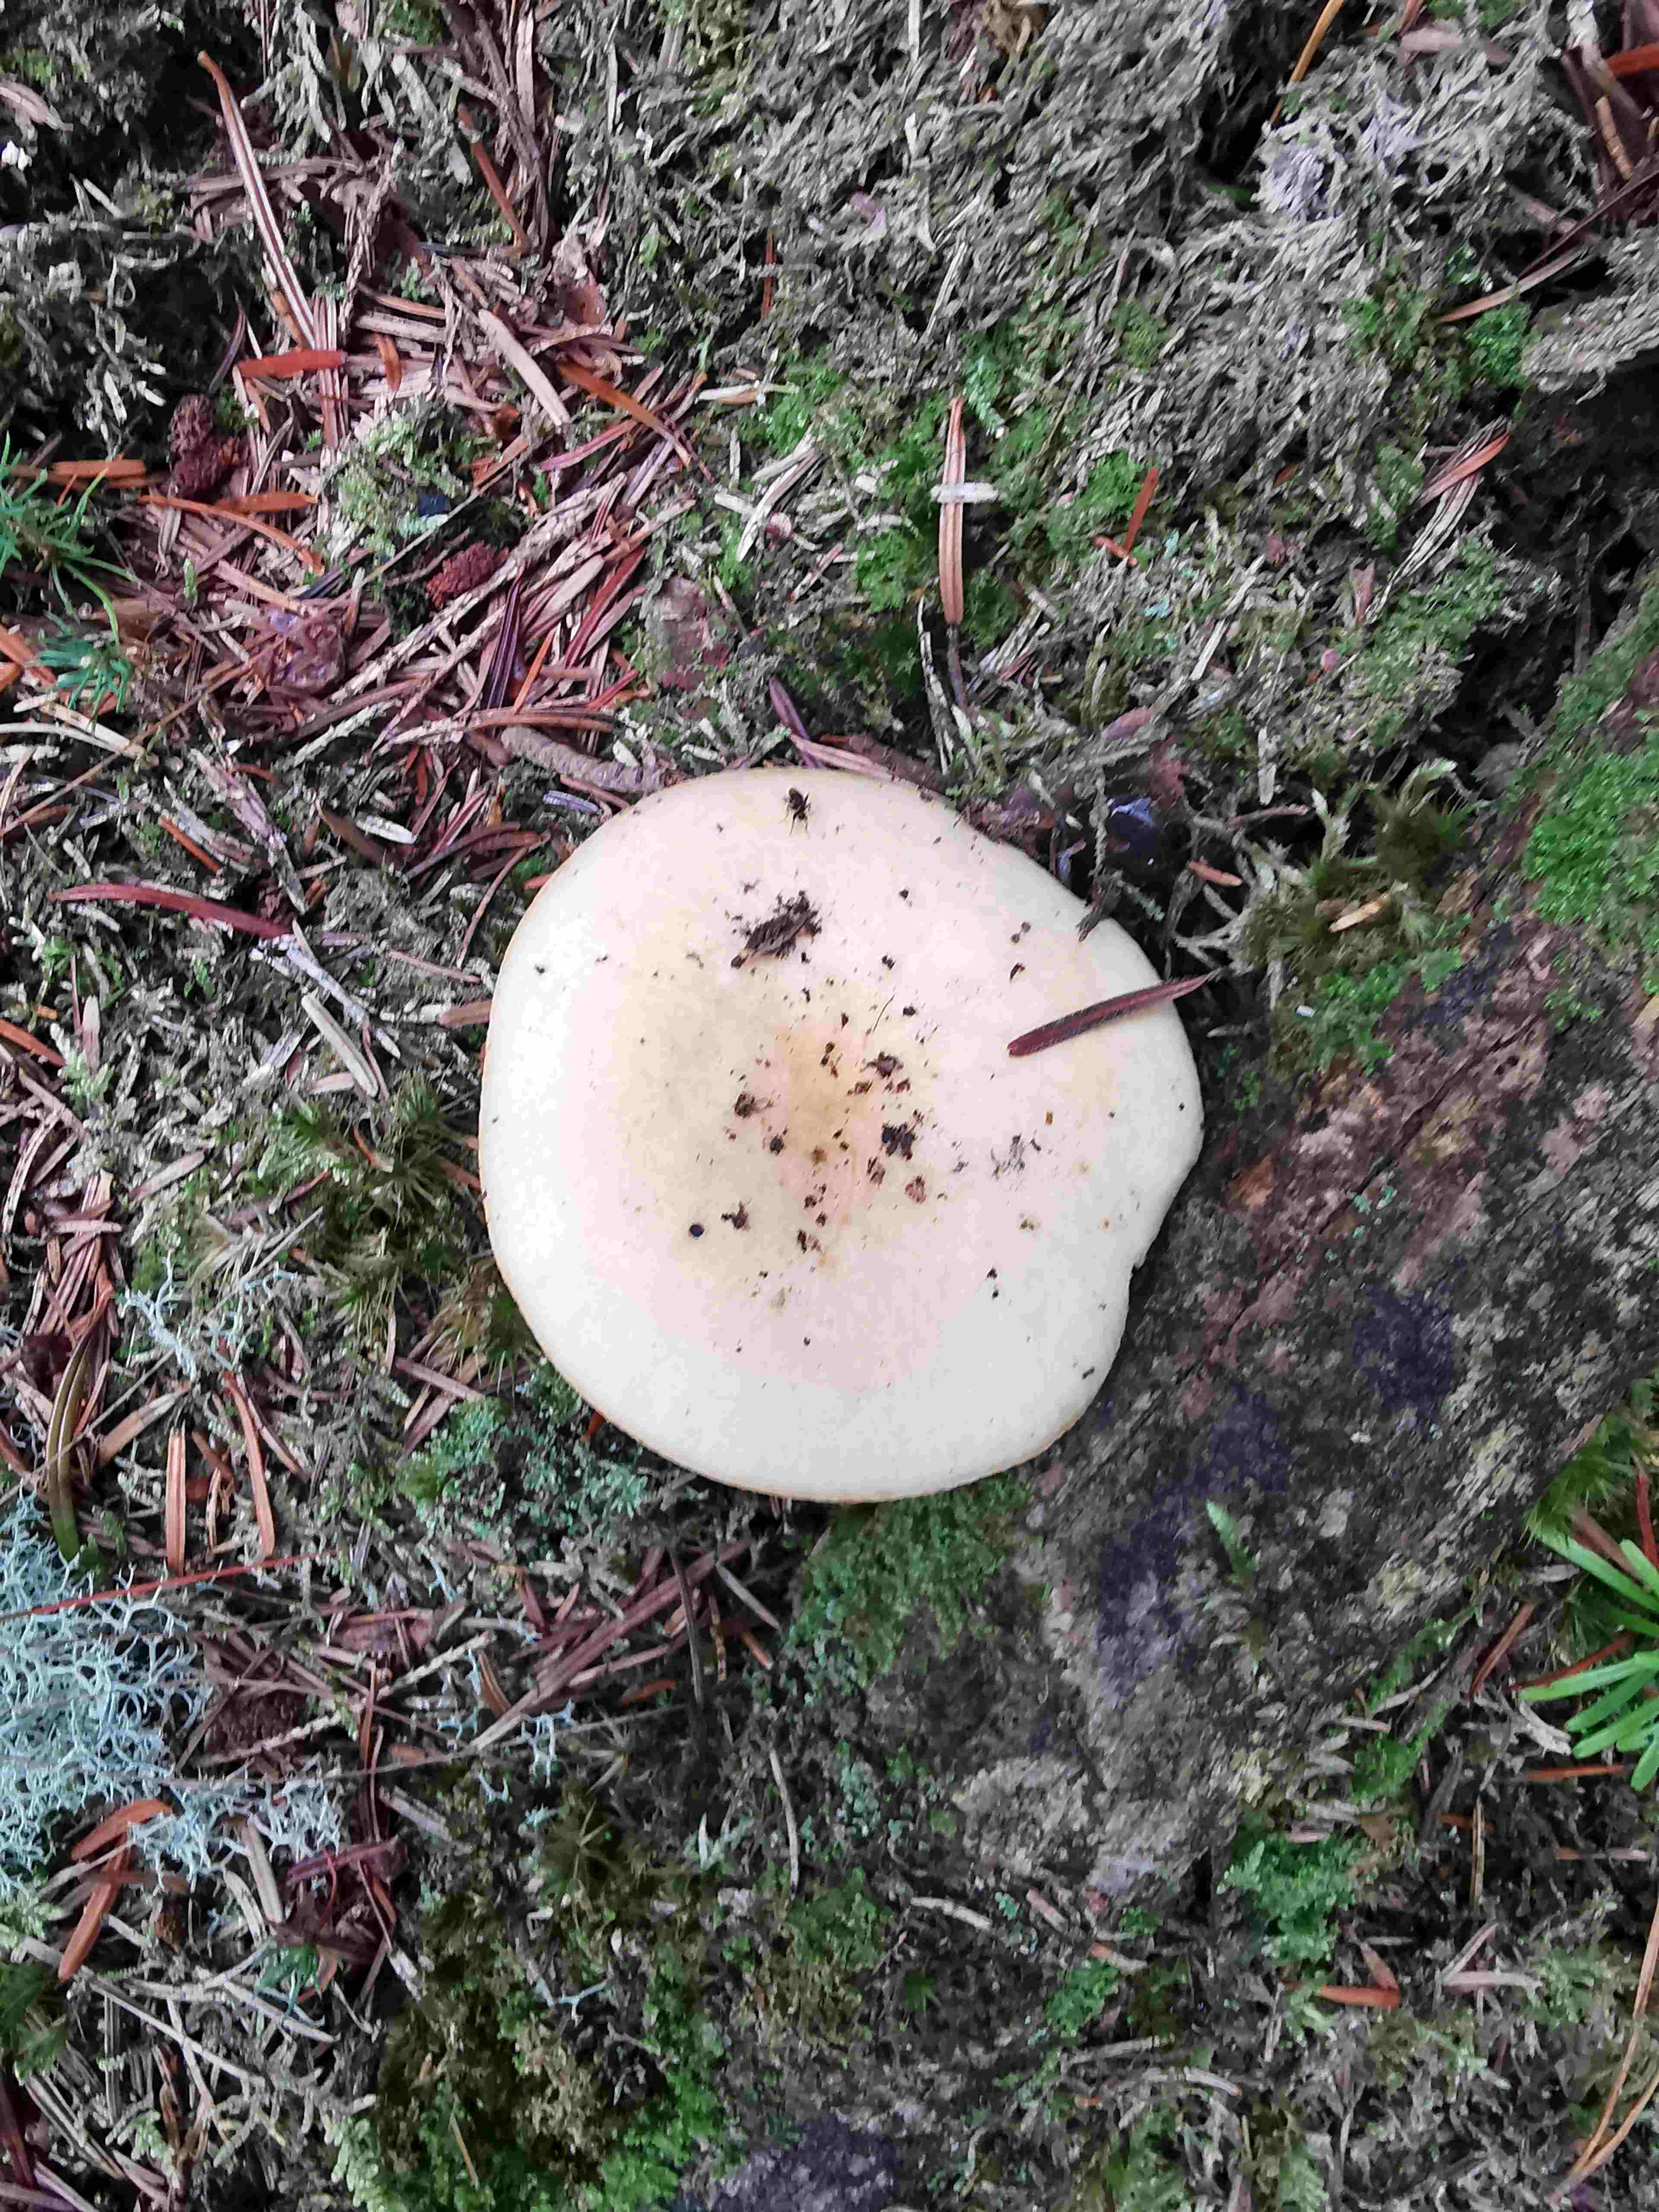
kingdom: Fungi
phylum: Basidiomycota
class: Agaricomycetes
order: Russulales
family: Russulaceae
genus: Russula
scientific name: Russula ochroleuca
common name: okkergul skørhat
